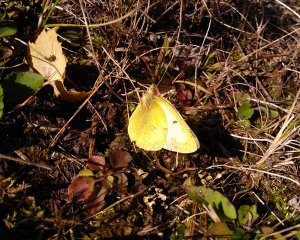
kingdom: Animalia
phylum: Arthropoda
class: Insecta
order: Lepidoptera
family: Pieridae
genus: Colias
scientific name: Colias philodice
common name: Clouded Sulphur
